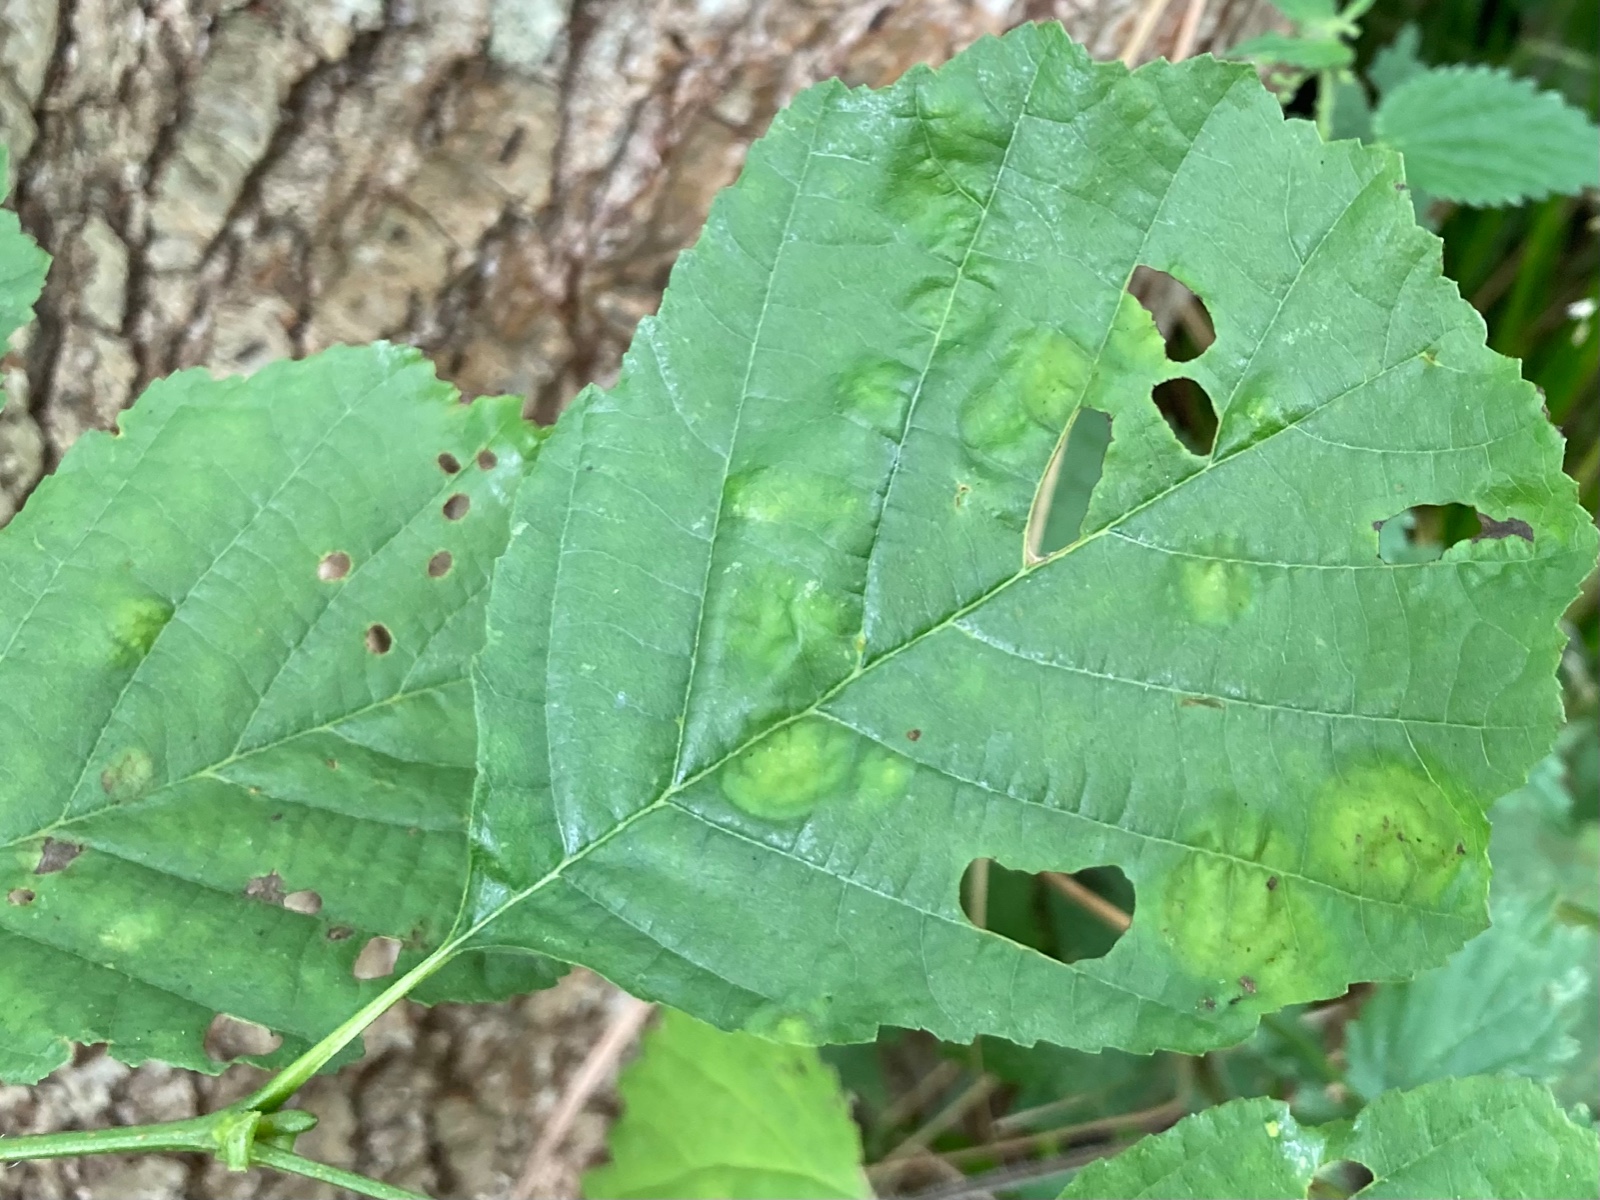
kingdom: Fungi
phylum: Ascomycota
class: Taphrinomycetes
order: Taphrinales
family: Taphrinaceae
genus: Taphrina
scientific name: Taphrina sadebeckii
